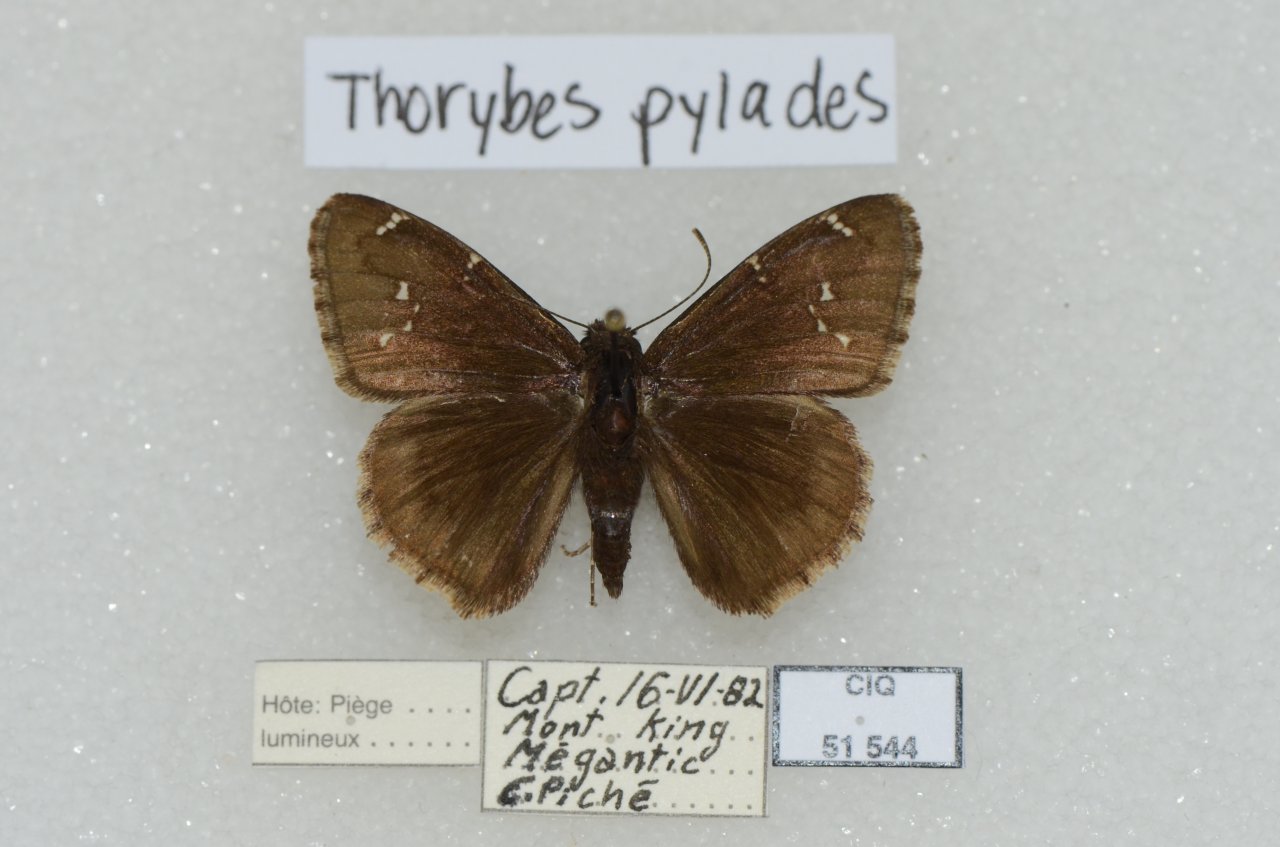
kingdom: Animalia
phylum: Arthropoda
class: Insecta
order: Lepidoptera
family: Hesperiidae
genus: Autochton
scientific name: Autochton
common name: Northern Cloudywing
